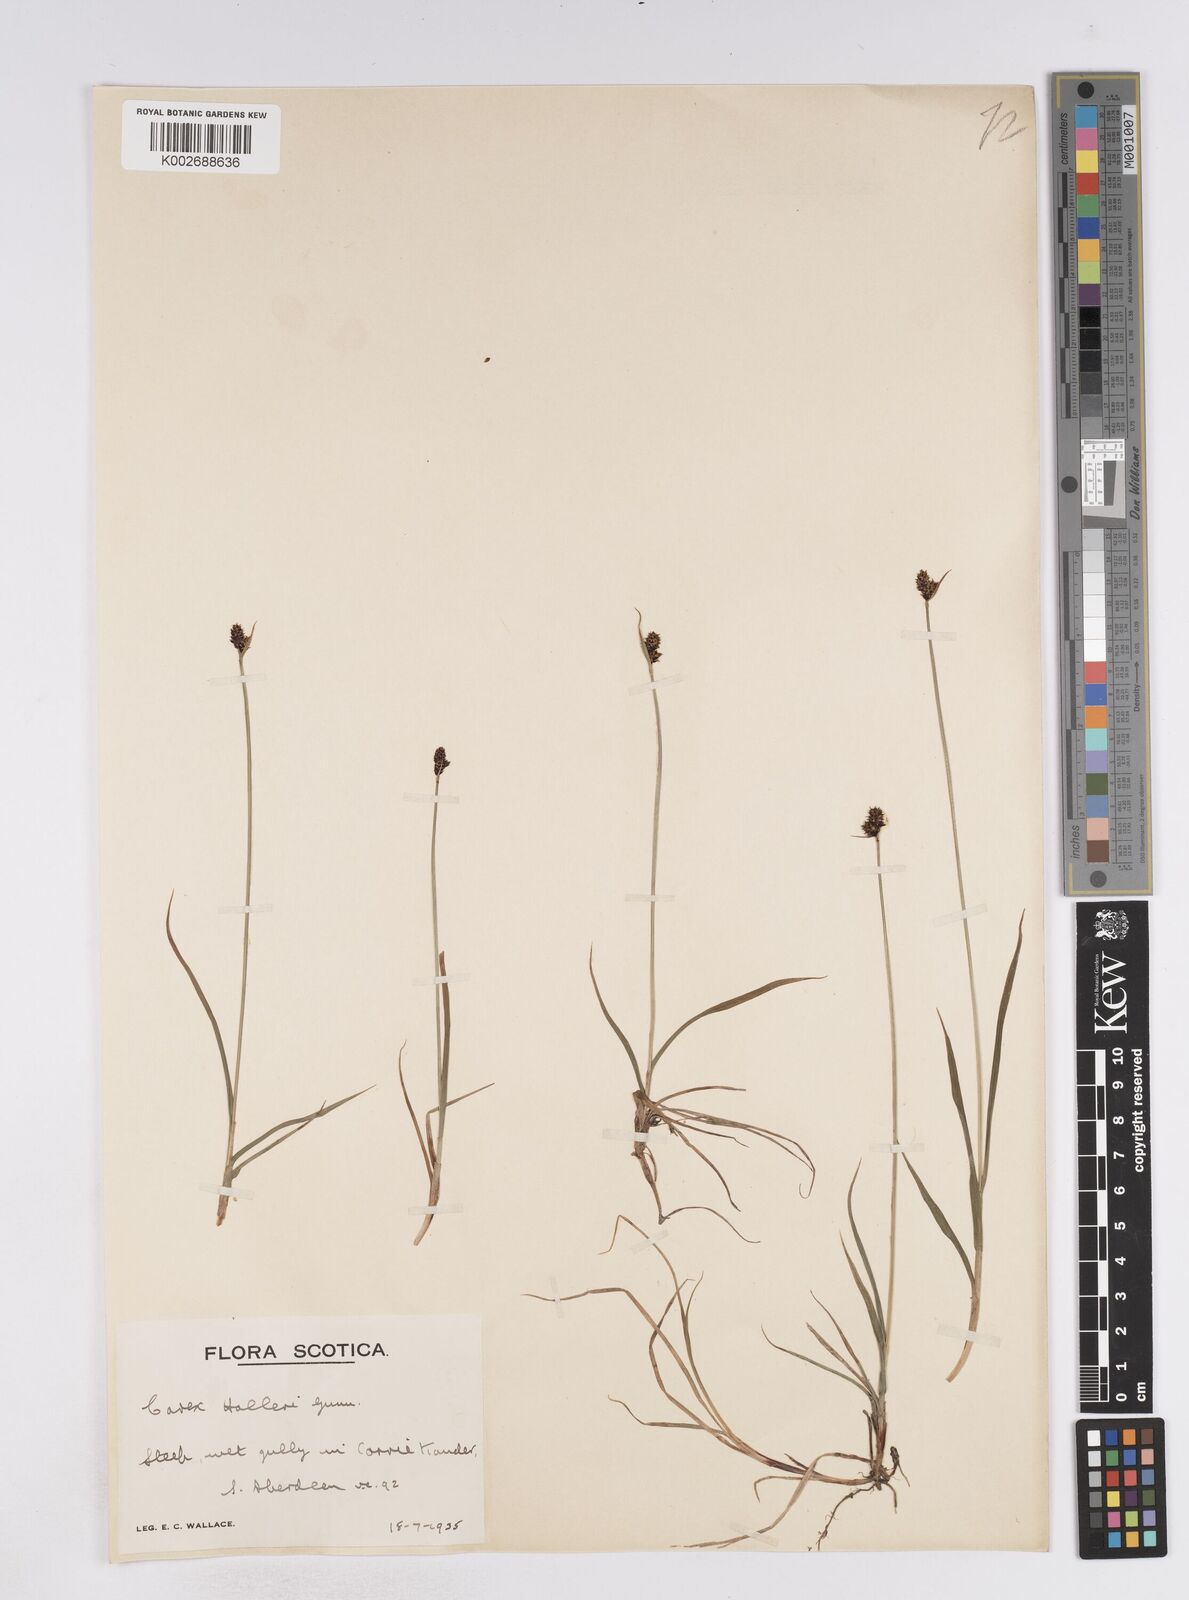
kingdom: Plantae
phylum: Tracheophyta
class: Liliopsida
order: Poales
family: Cyperaceae
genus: Carex
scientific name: Carex norvegica
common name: Close-headed alpine-sedge
